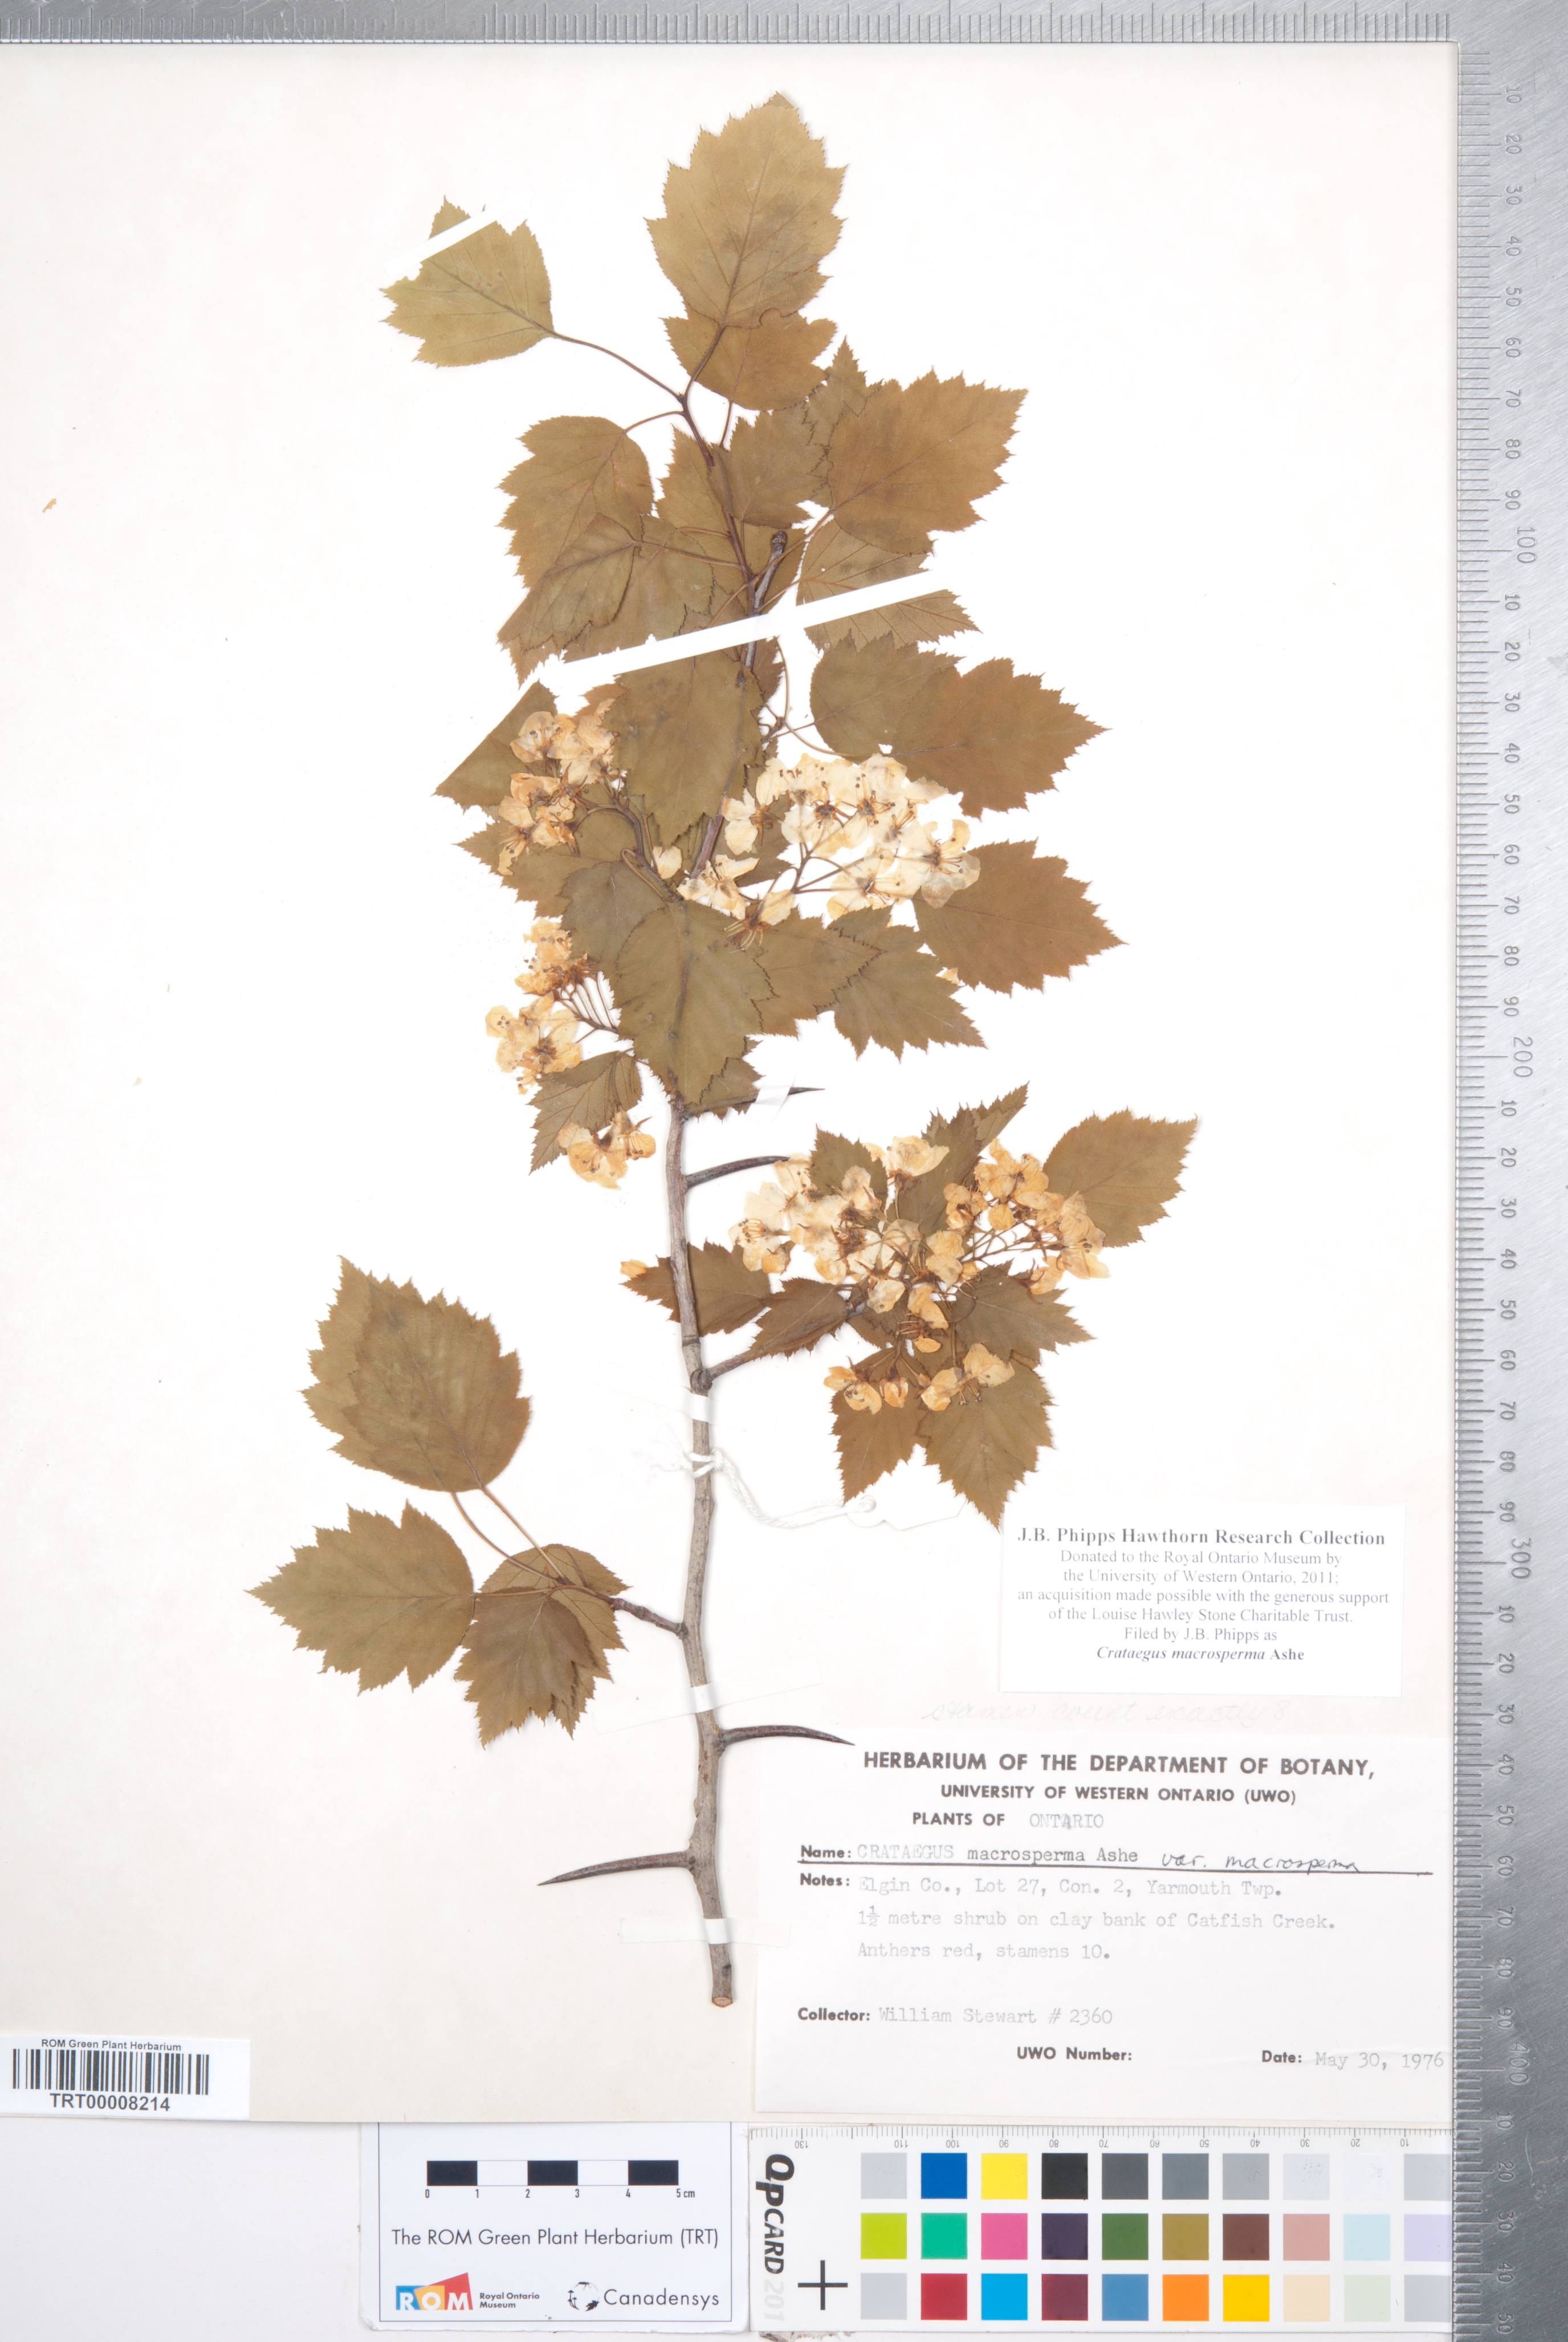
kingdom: Plantae
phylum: Tracheophyta
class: Magnoliopsida
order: Rosales
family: Rosaceae
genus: Crataegus
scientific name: Crataegus macrosperma
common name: Variable hawthorn
